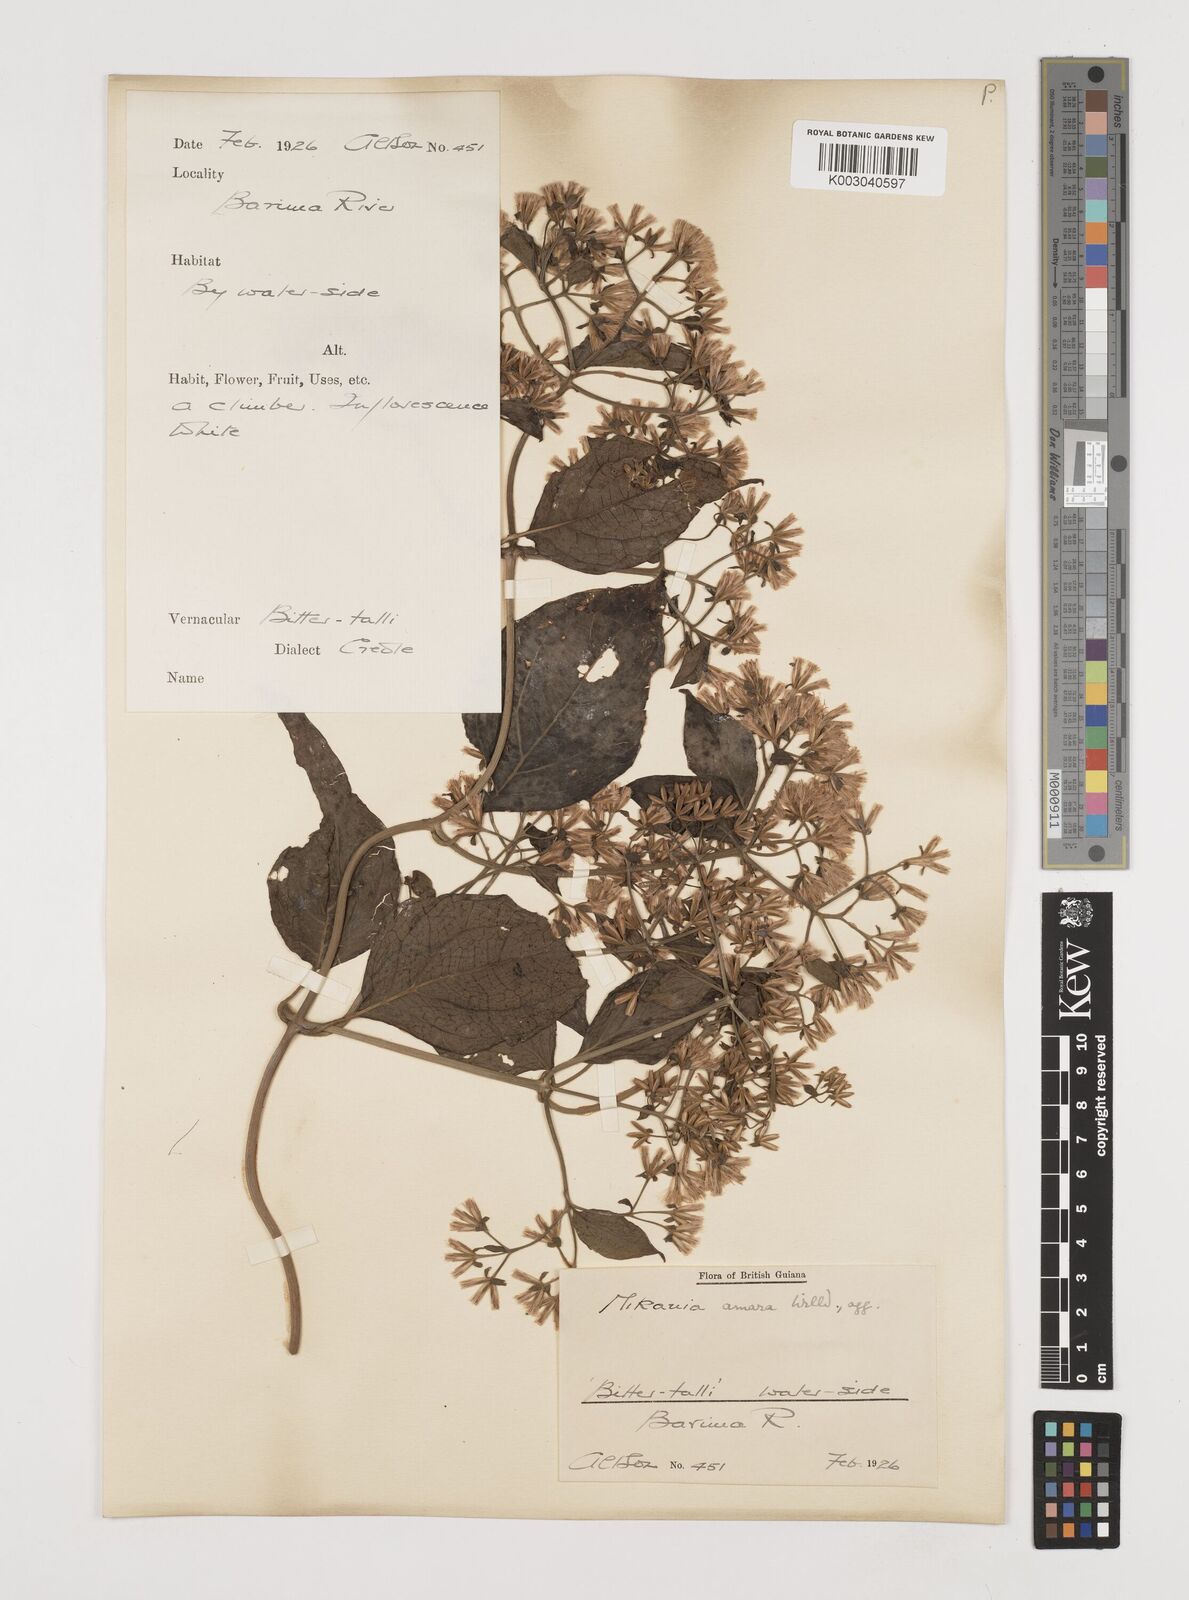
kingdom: Plantae
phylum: Tracheophyta
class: Magnoliopsida
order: Asterales
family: Asteraceae
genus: Mikania
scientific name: Mikania trinitaria
